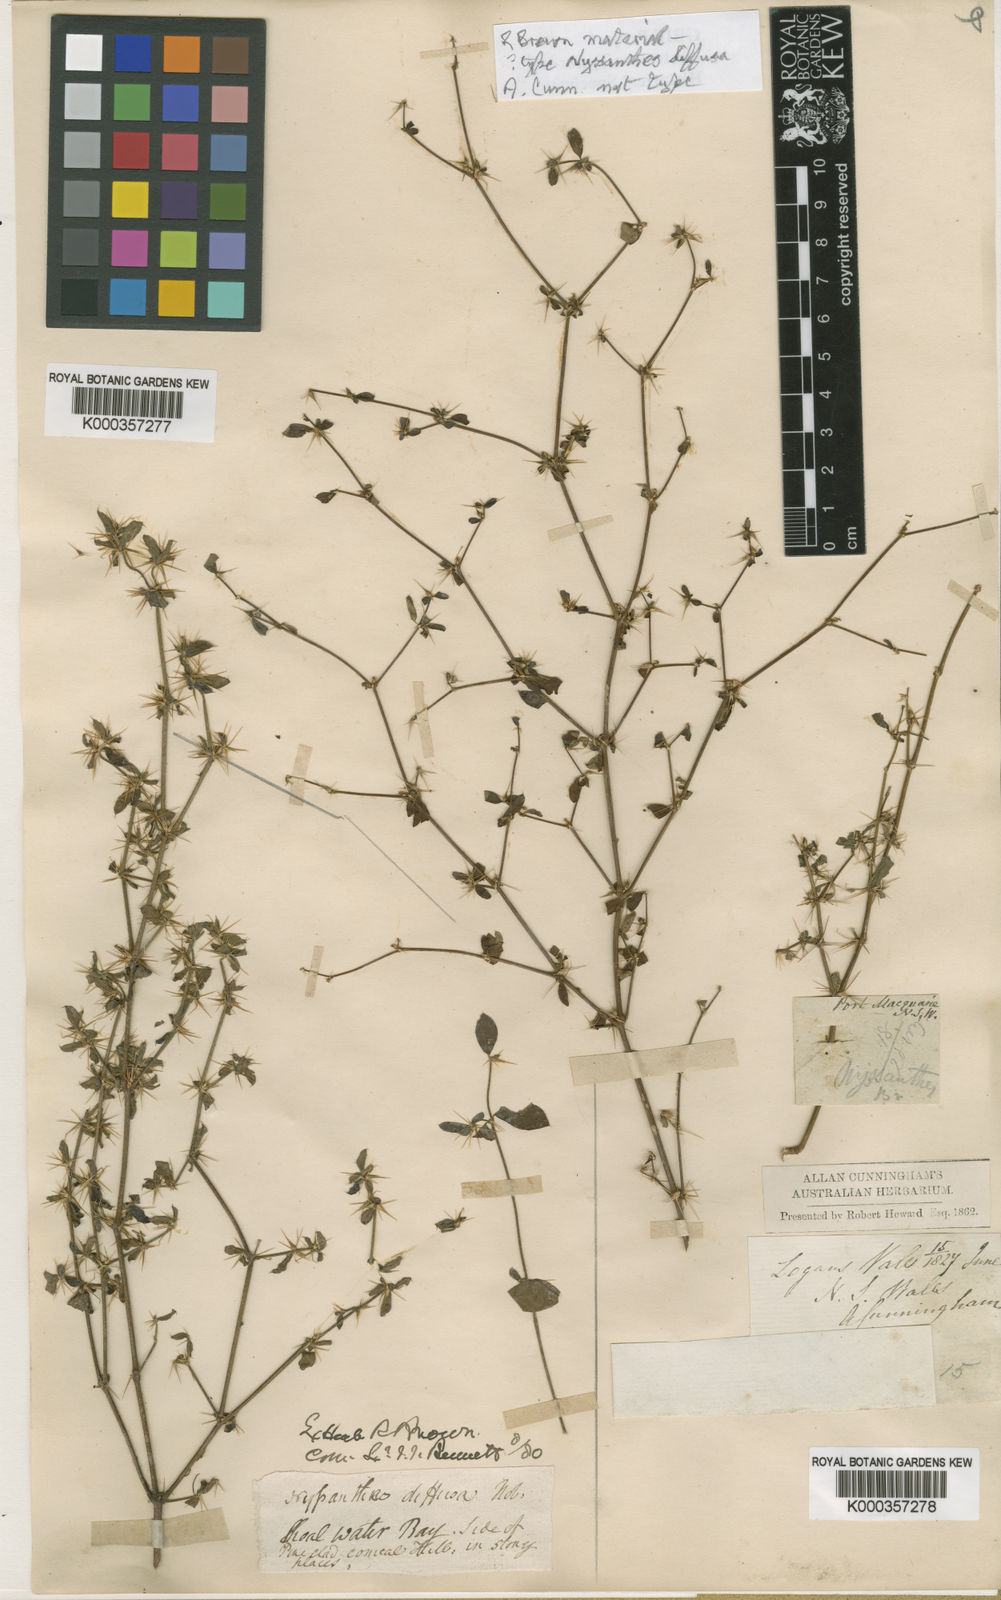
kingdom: Plantae
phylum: Tracheophyta
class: Magnoliopsida
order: Caryophyllales
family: Amaranthaceae
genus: Nyssanthes
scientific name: Nyssanthes diffusa
